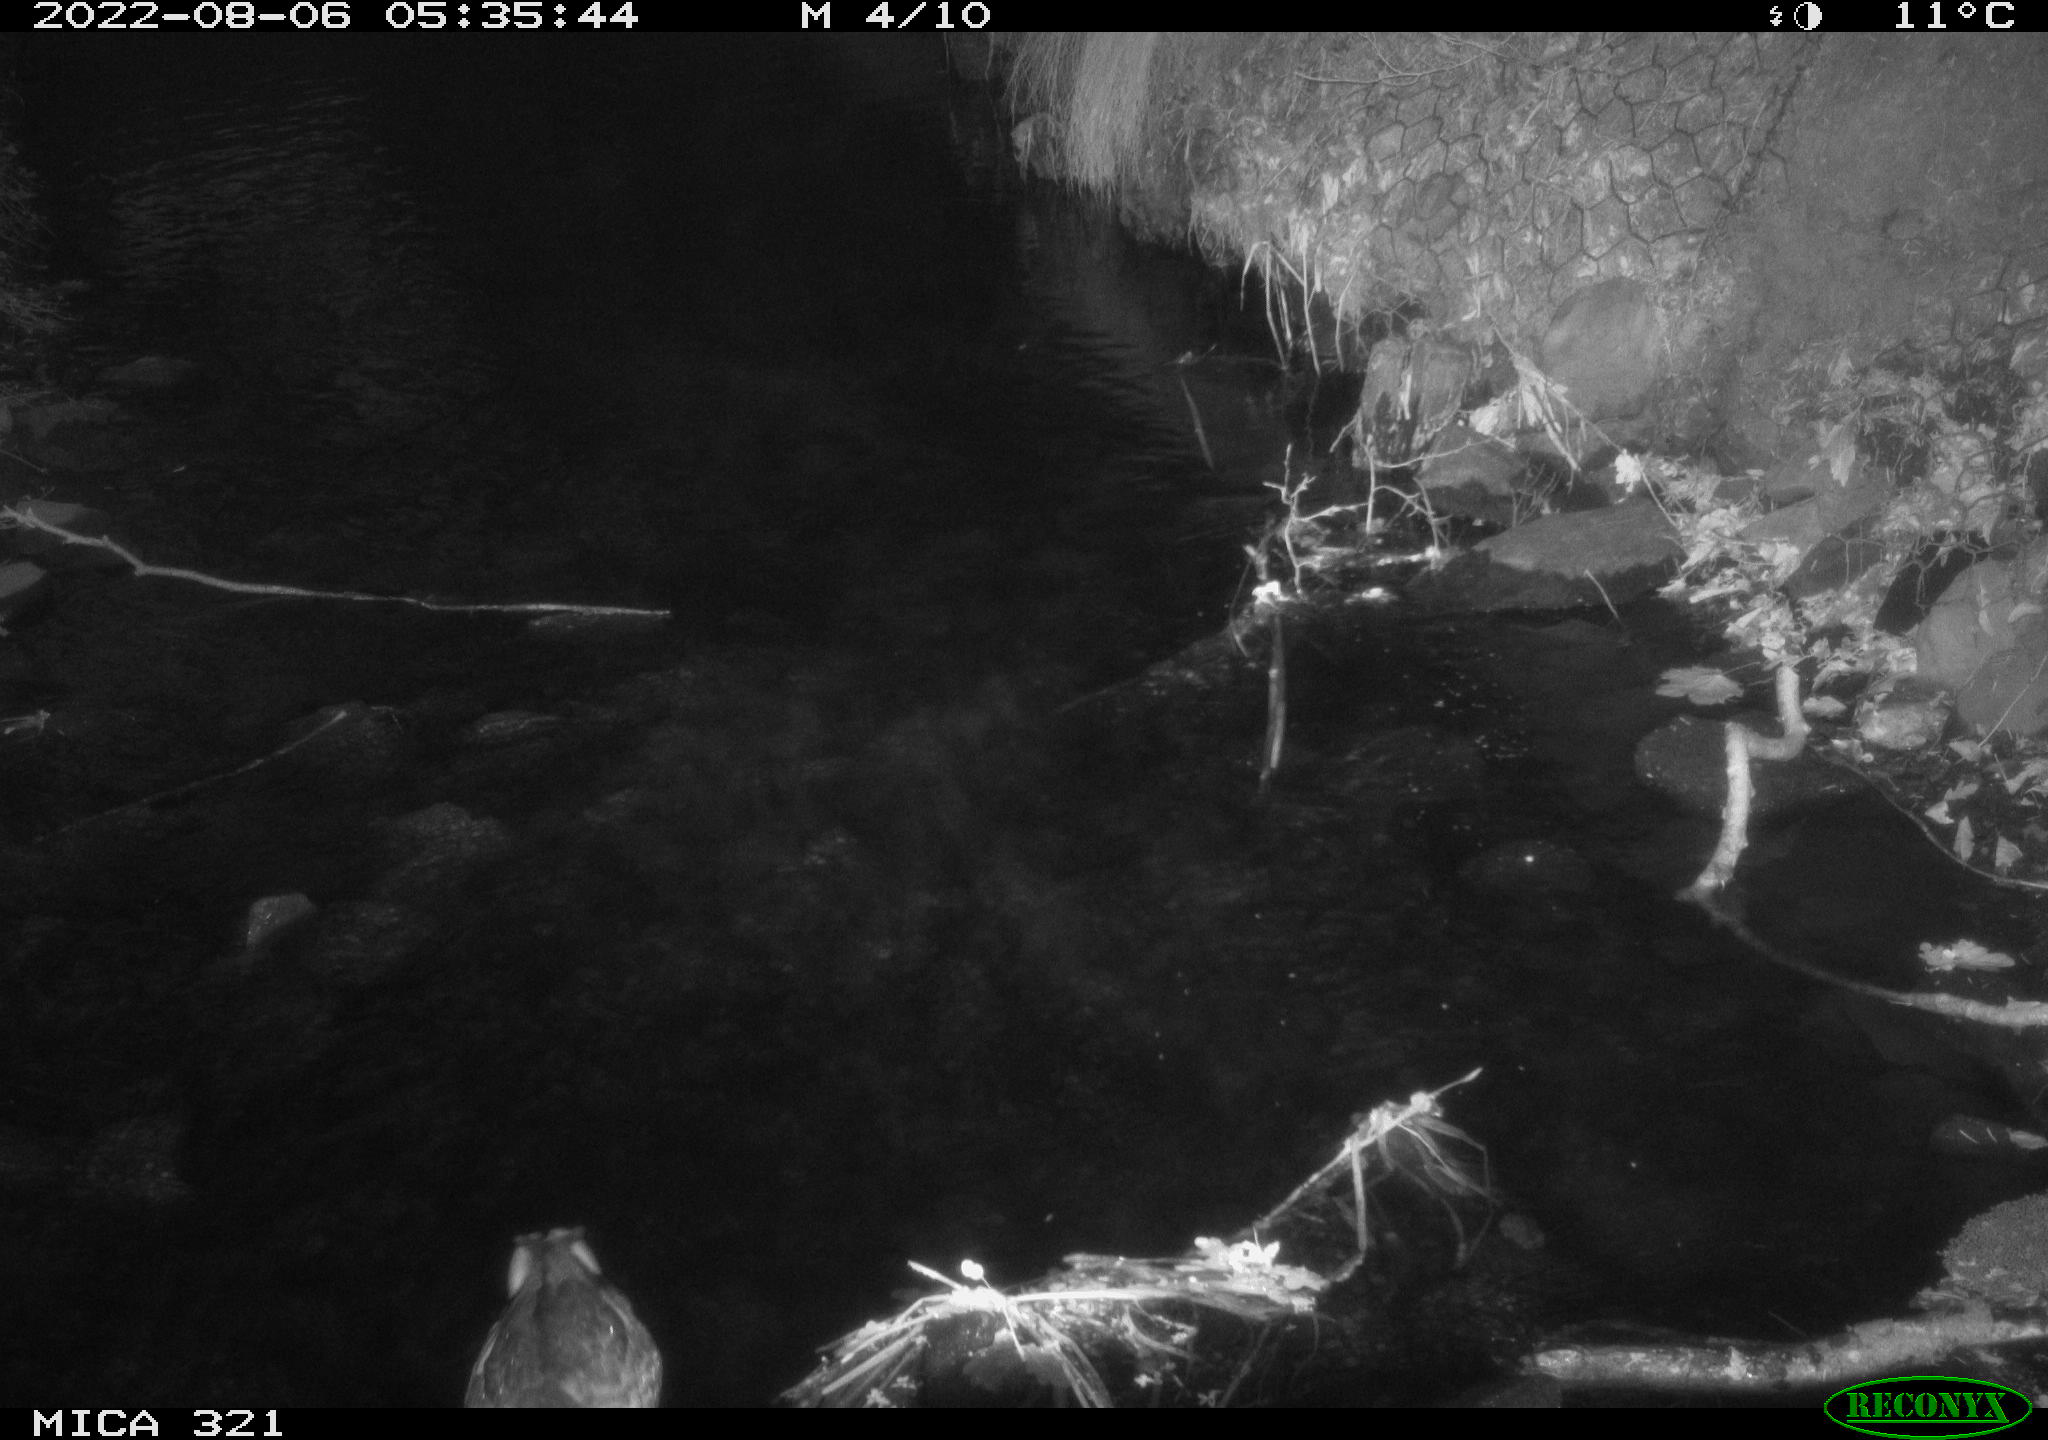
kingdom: Animalia
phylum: Chordata
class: Aves
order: Anseriformes
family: Anatidae
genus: Anas
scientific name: Anas platyrhynchos
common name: Mallard
